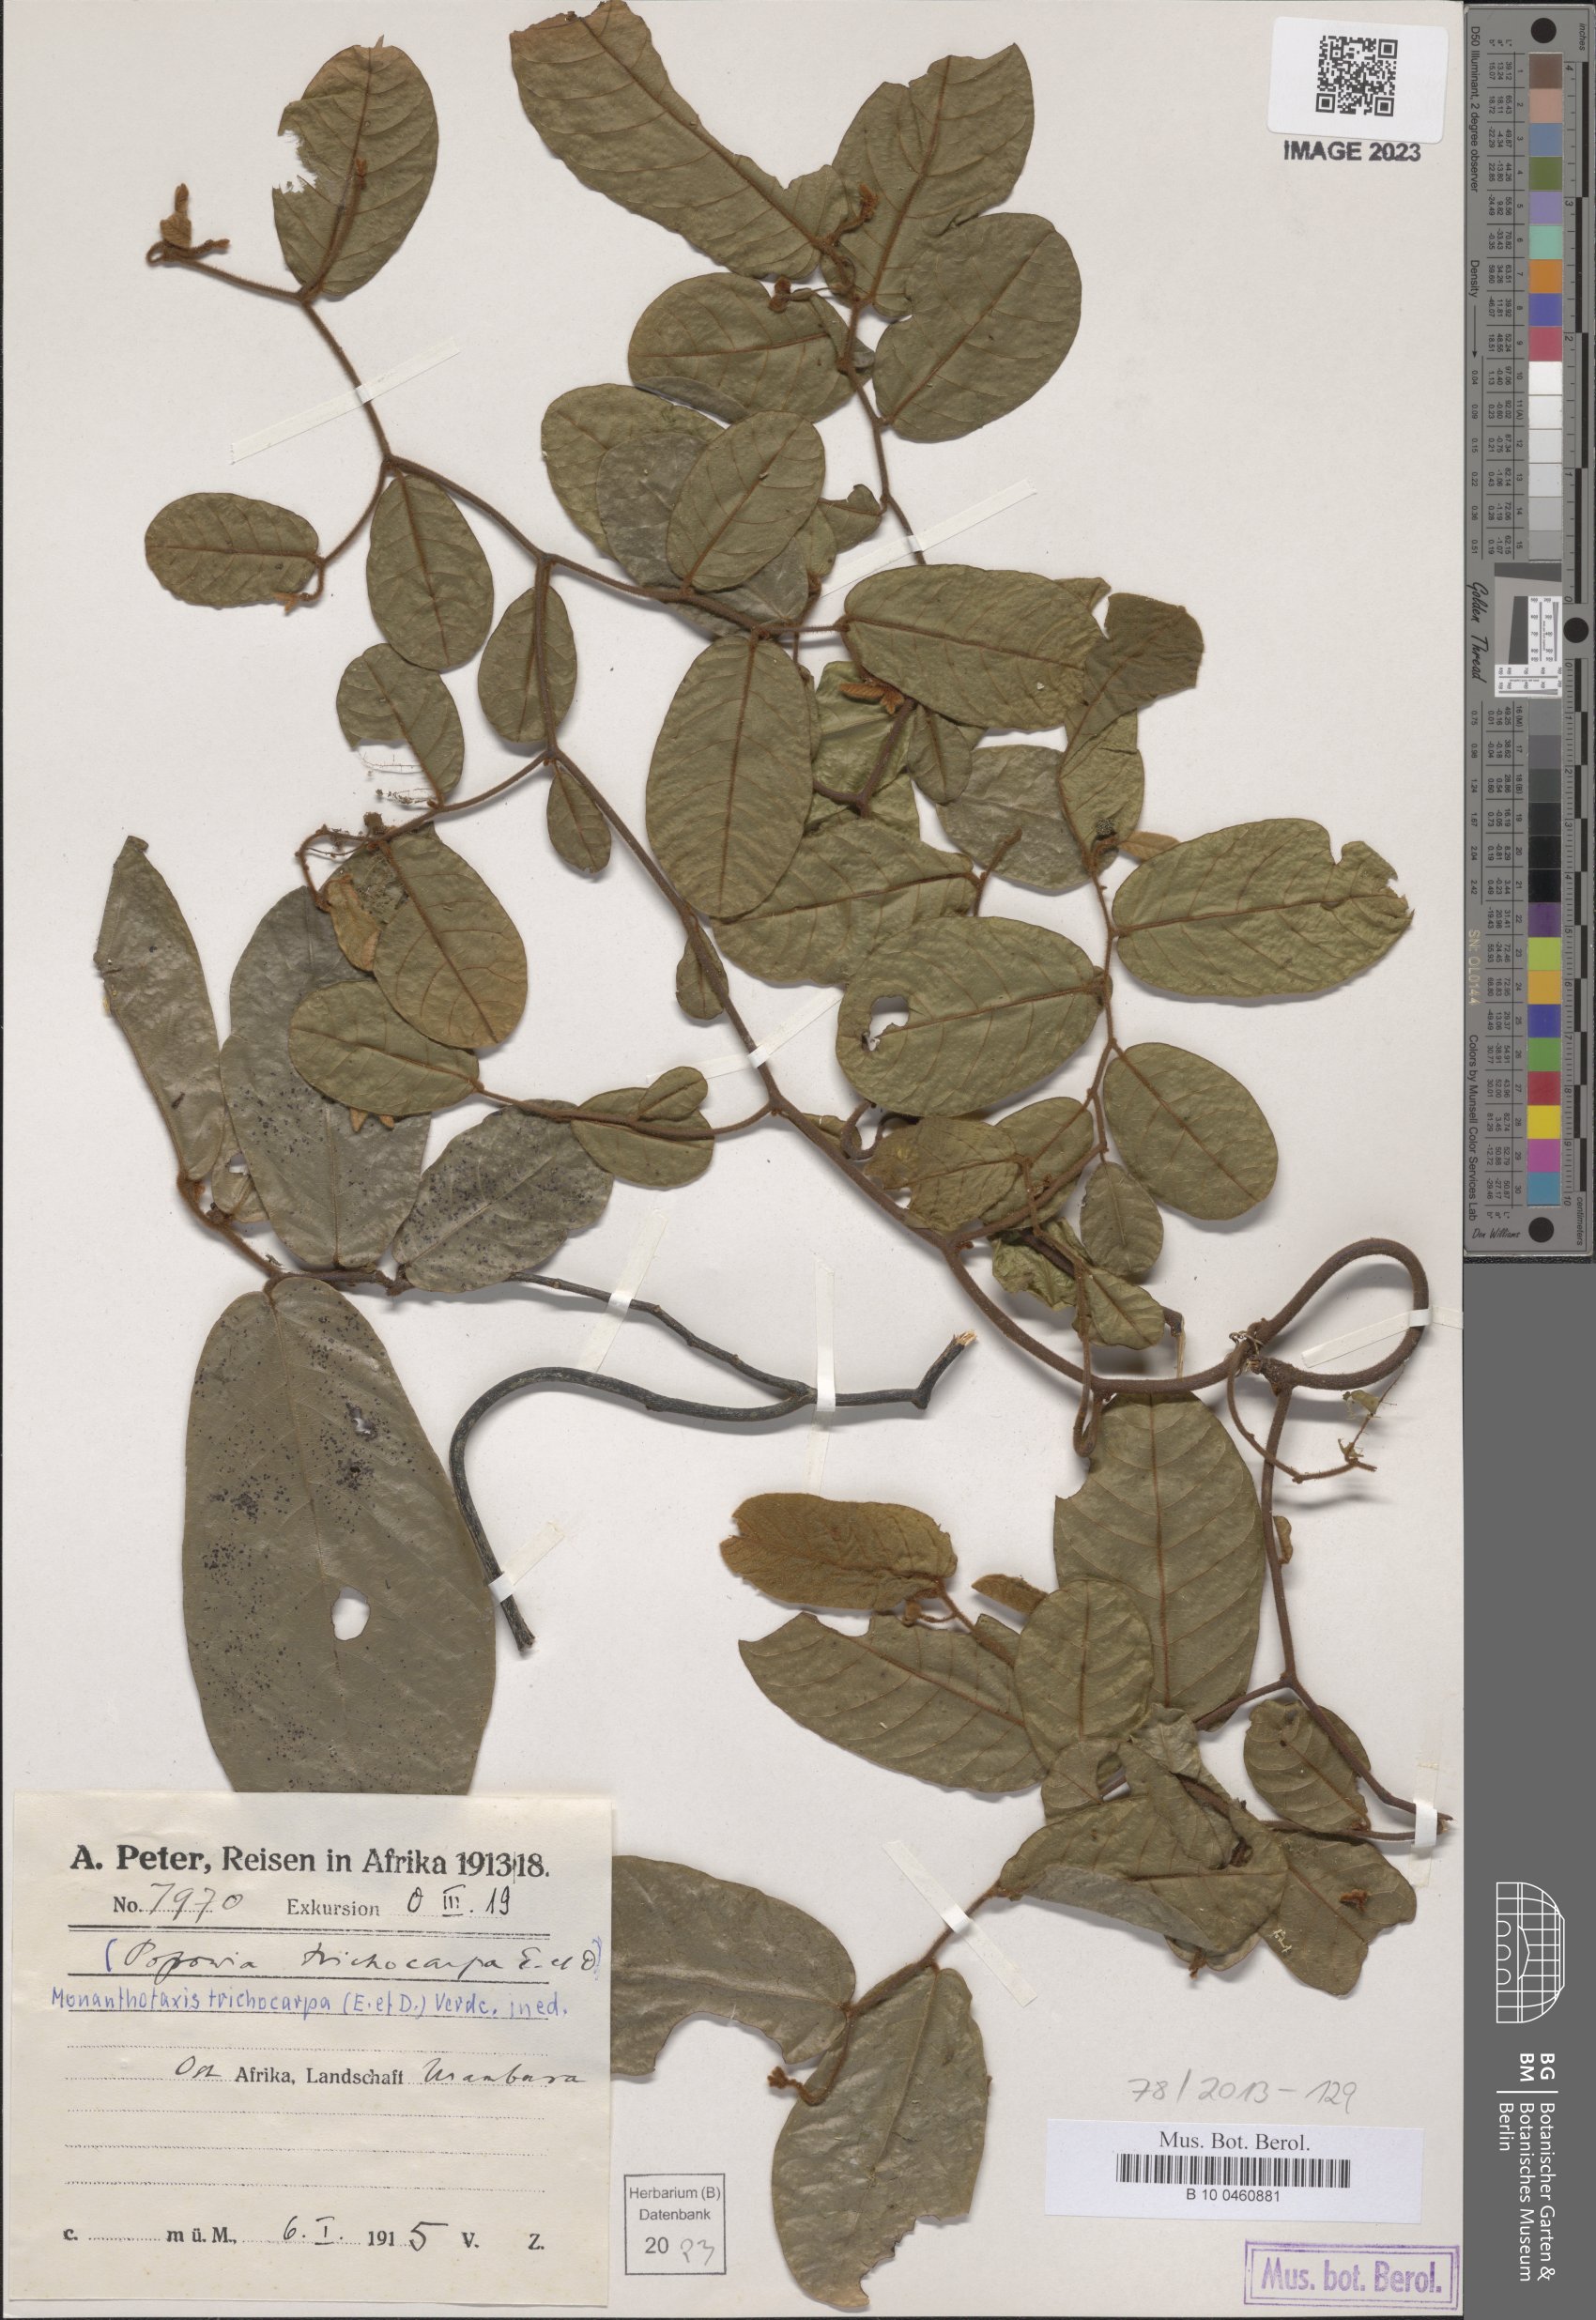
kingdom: Plantae
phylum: Tracheophyta
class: Magnoliopsida
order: Magnoliales
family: Annonaceae
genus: Monanthotaxis
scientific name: Monanthotaxis trichocarpa
